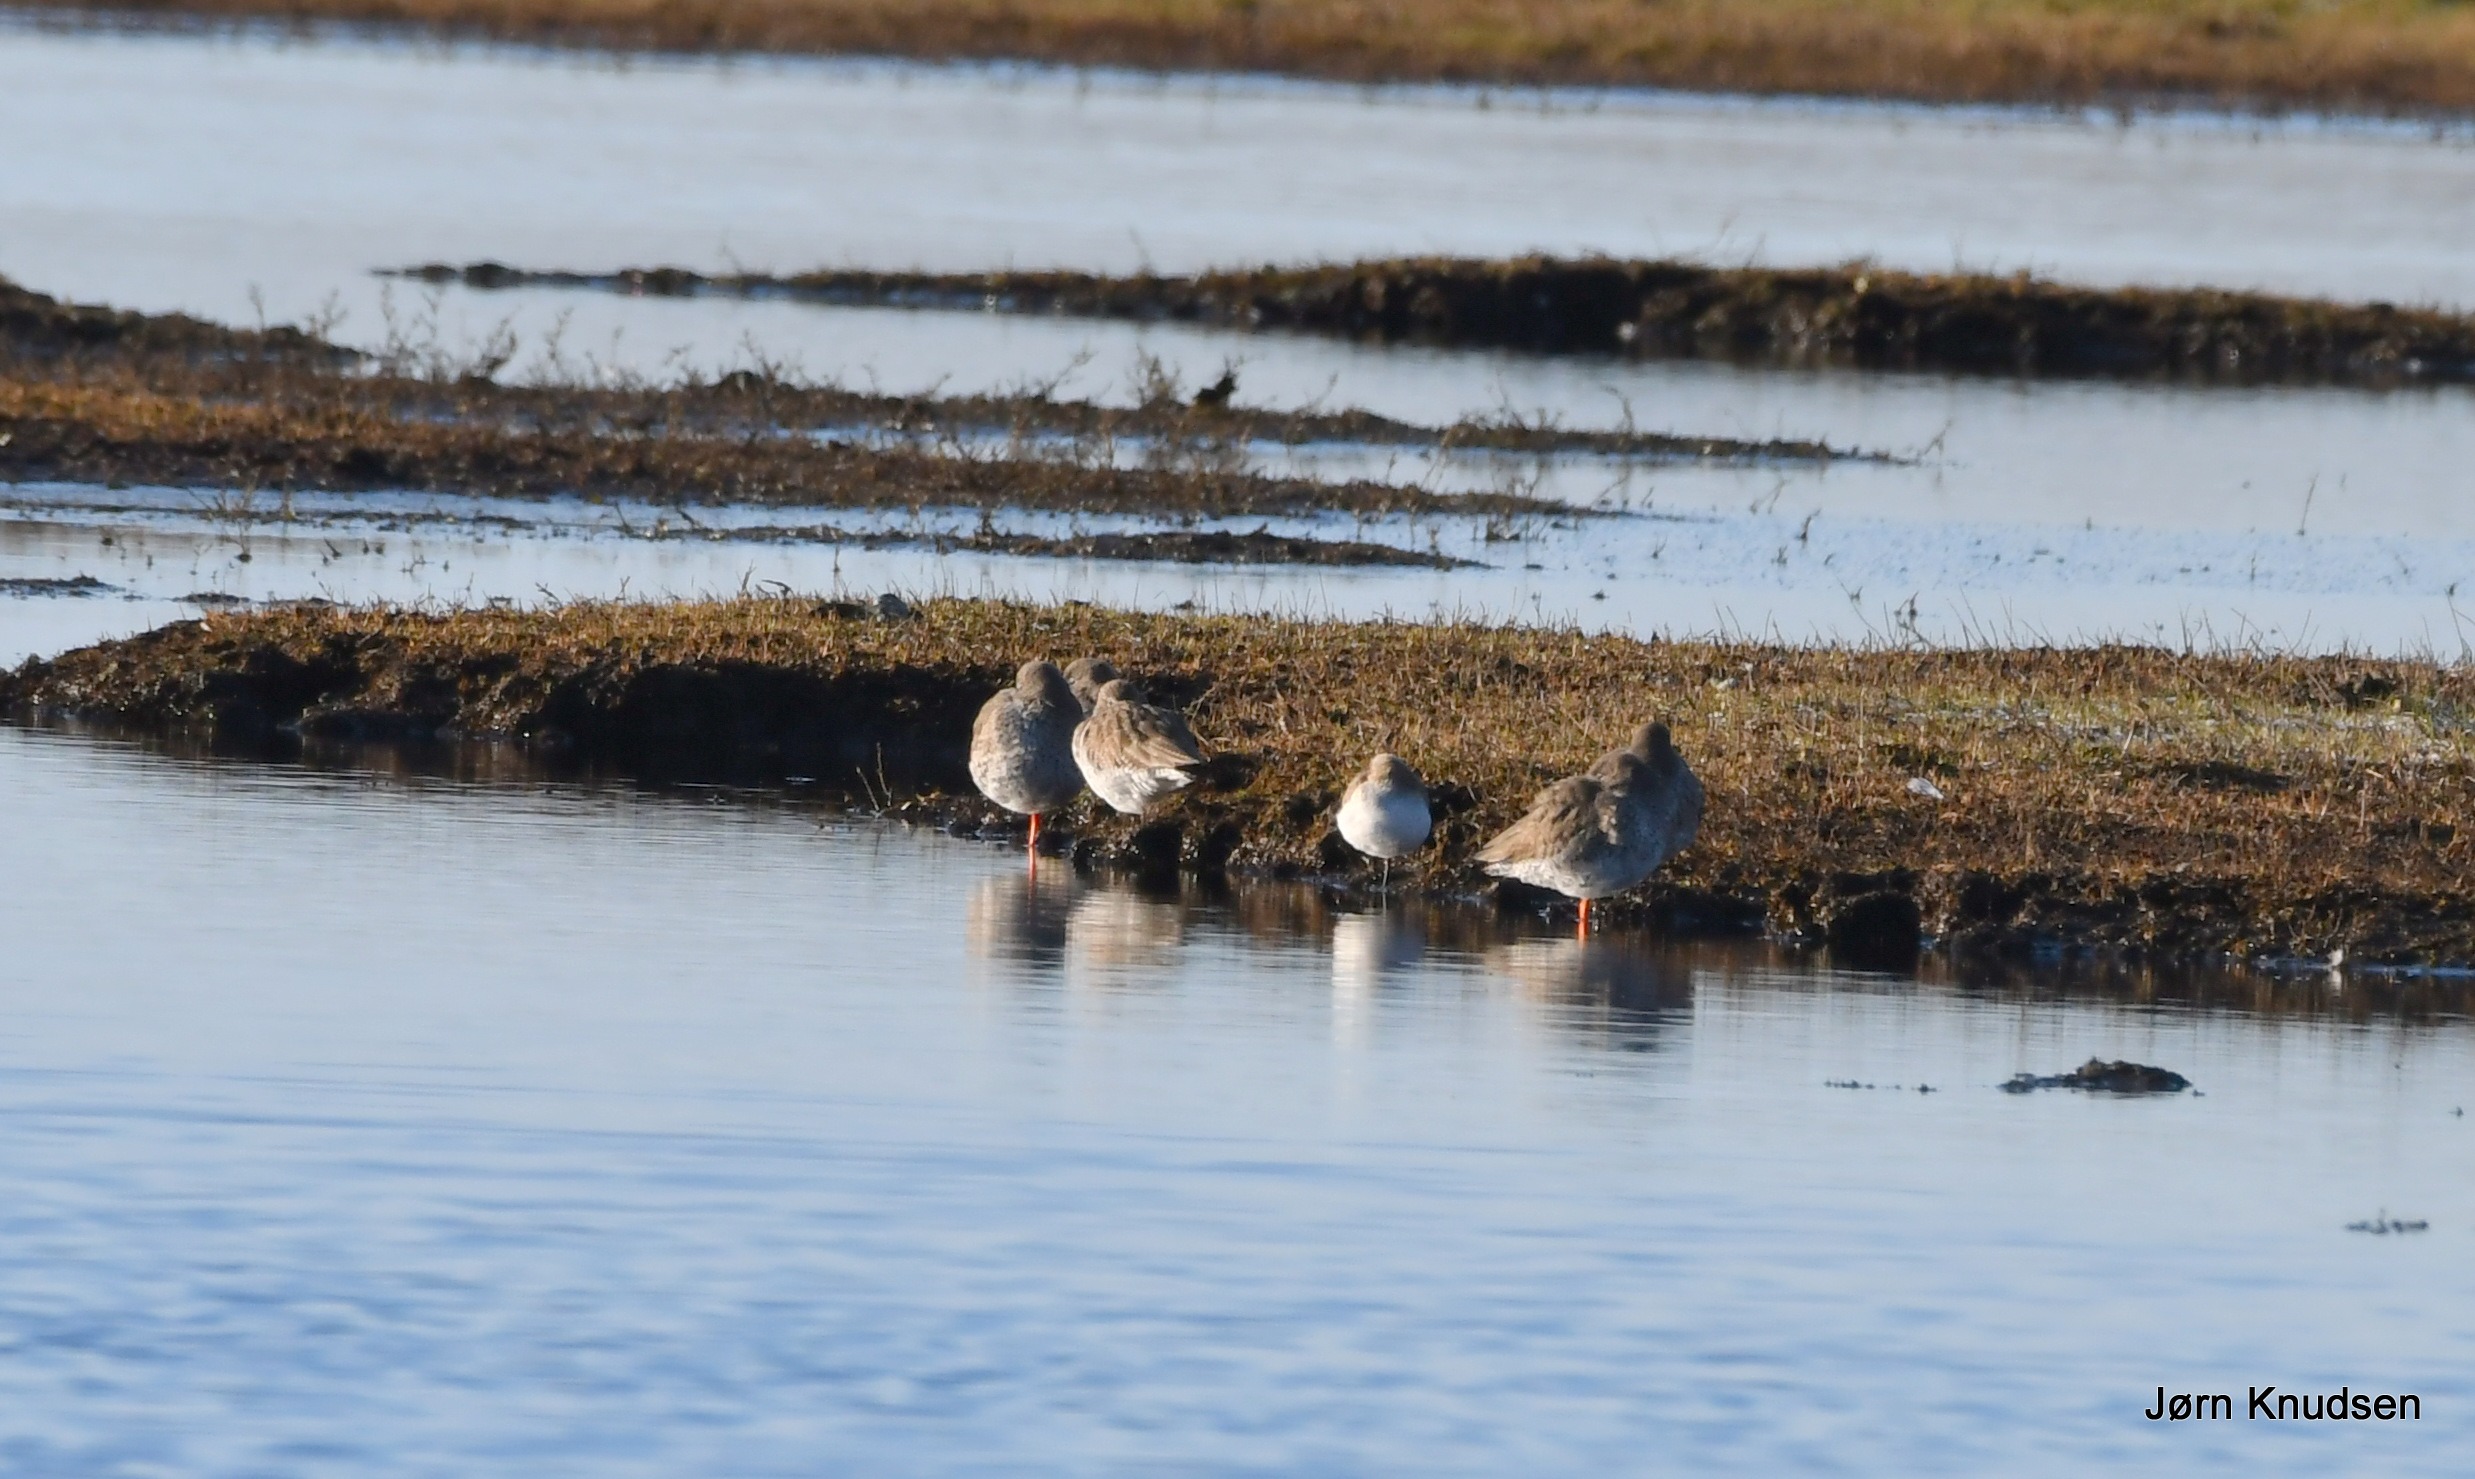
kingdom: Animalia
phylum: Chordata
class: Aves
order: Charadriiformes
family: Scolopacidae
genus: Tringa
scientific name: Tringa totanus
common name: Rødben
